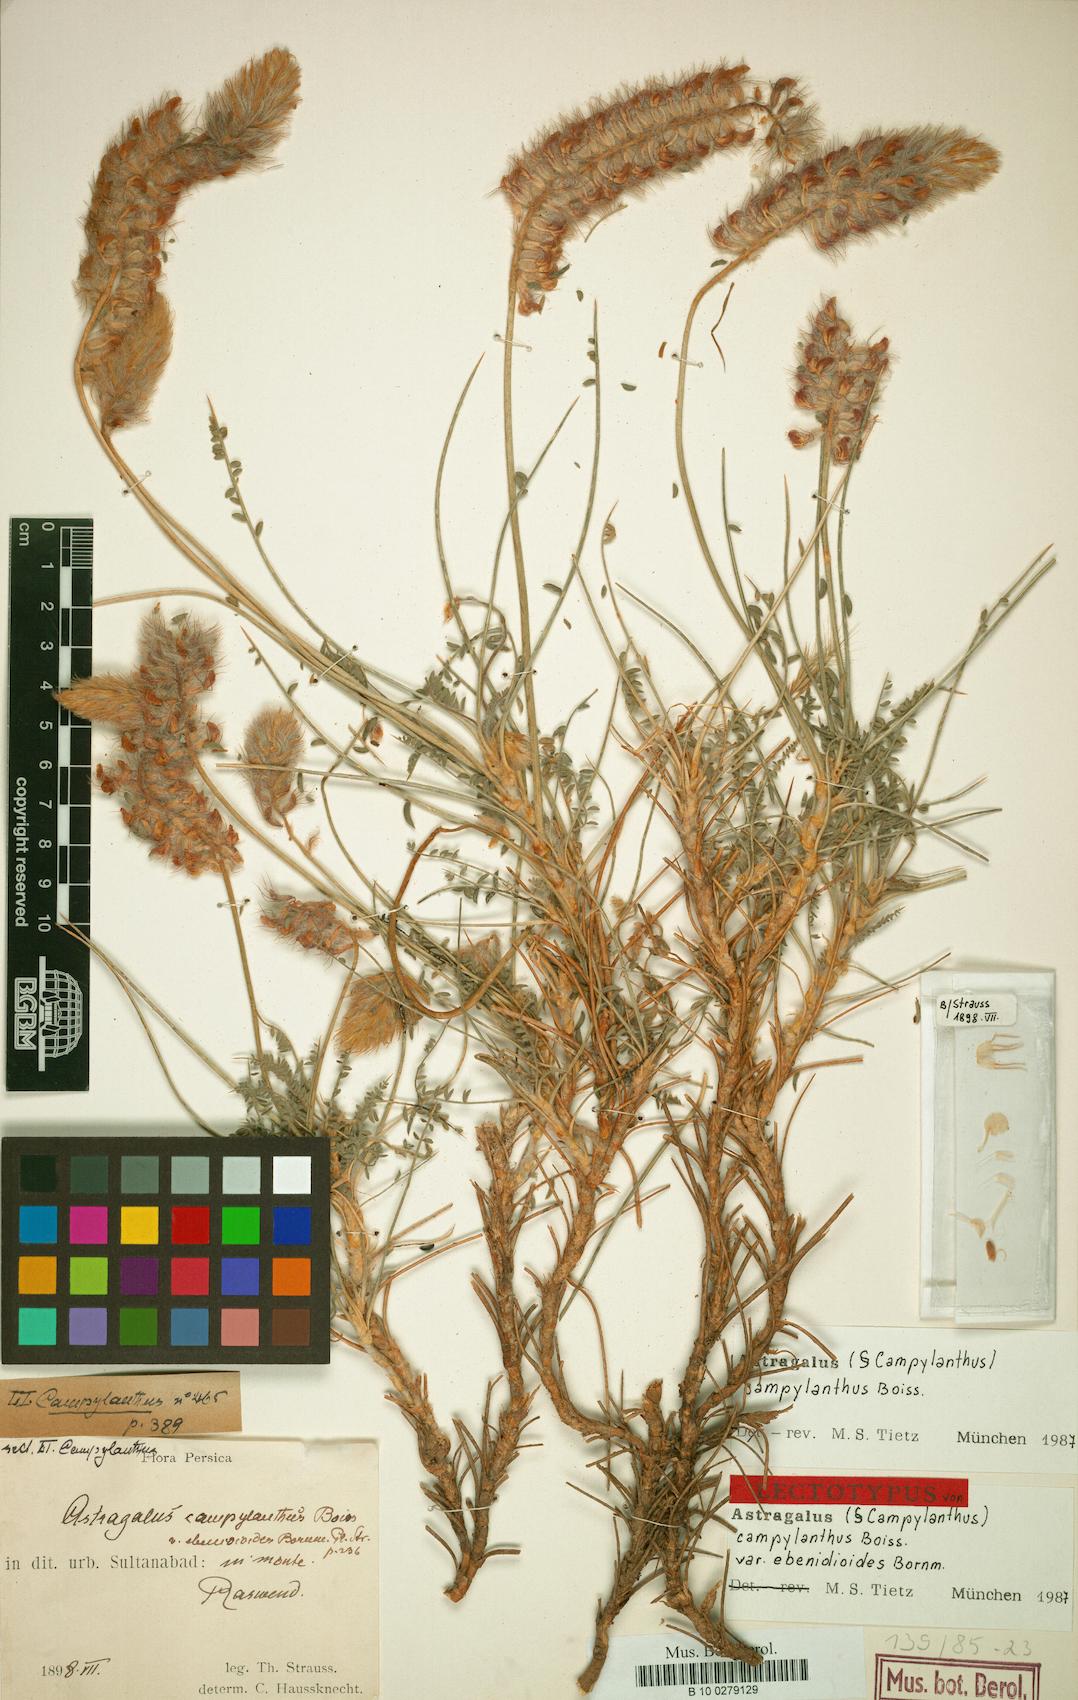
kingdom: Plantae
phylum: Tracheophyta
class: Magnoliopsida
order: Fabales
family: Fabaceae
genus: Astragalus
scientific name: Astragalus campylanthus
